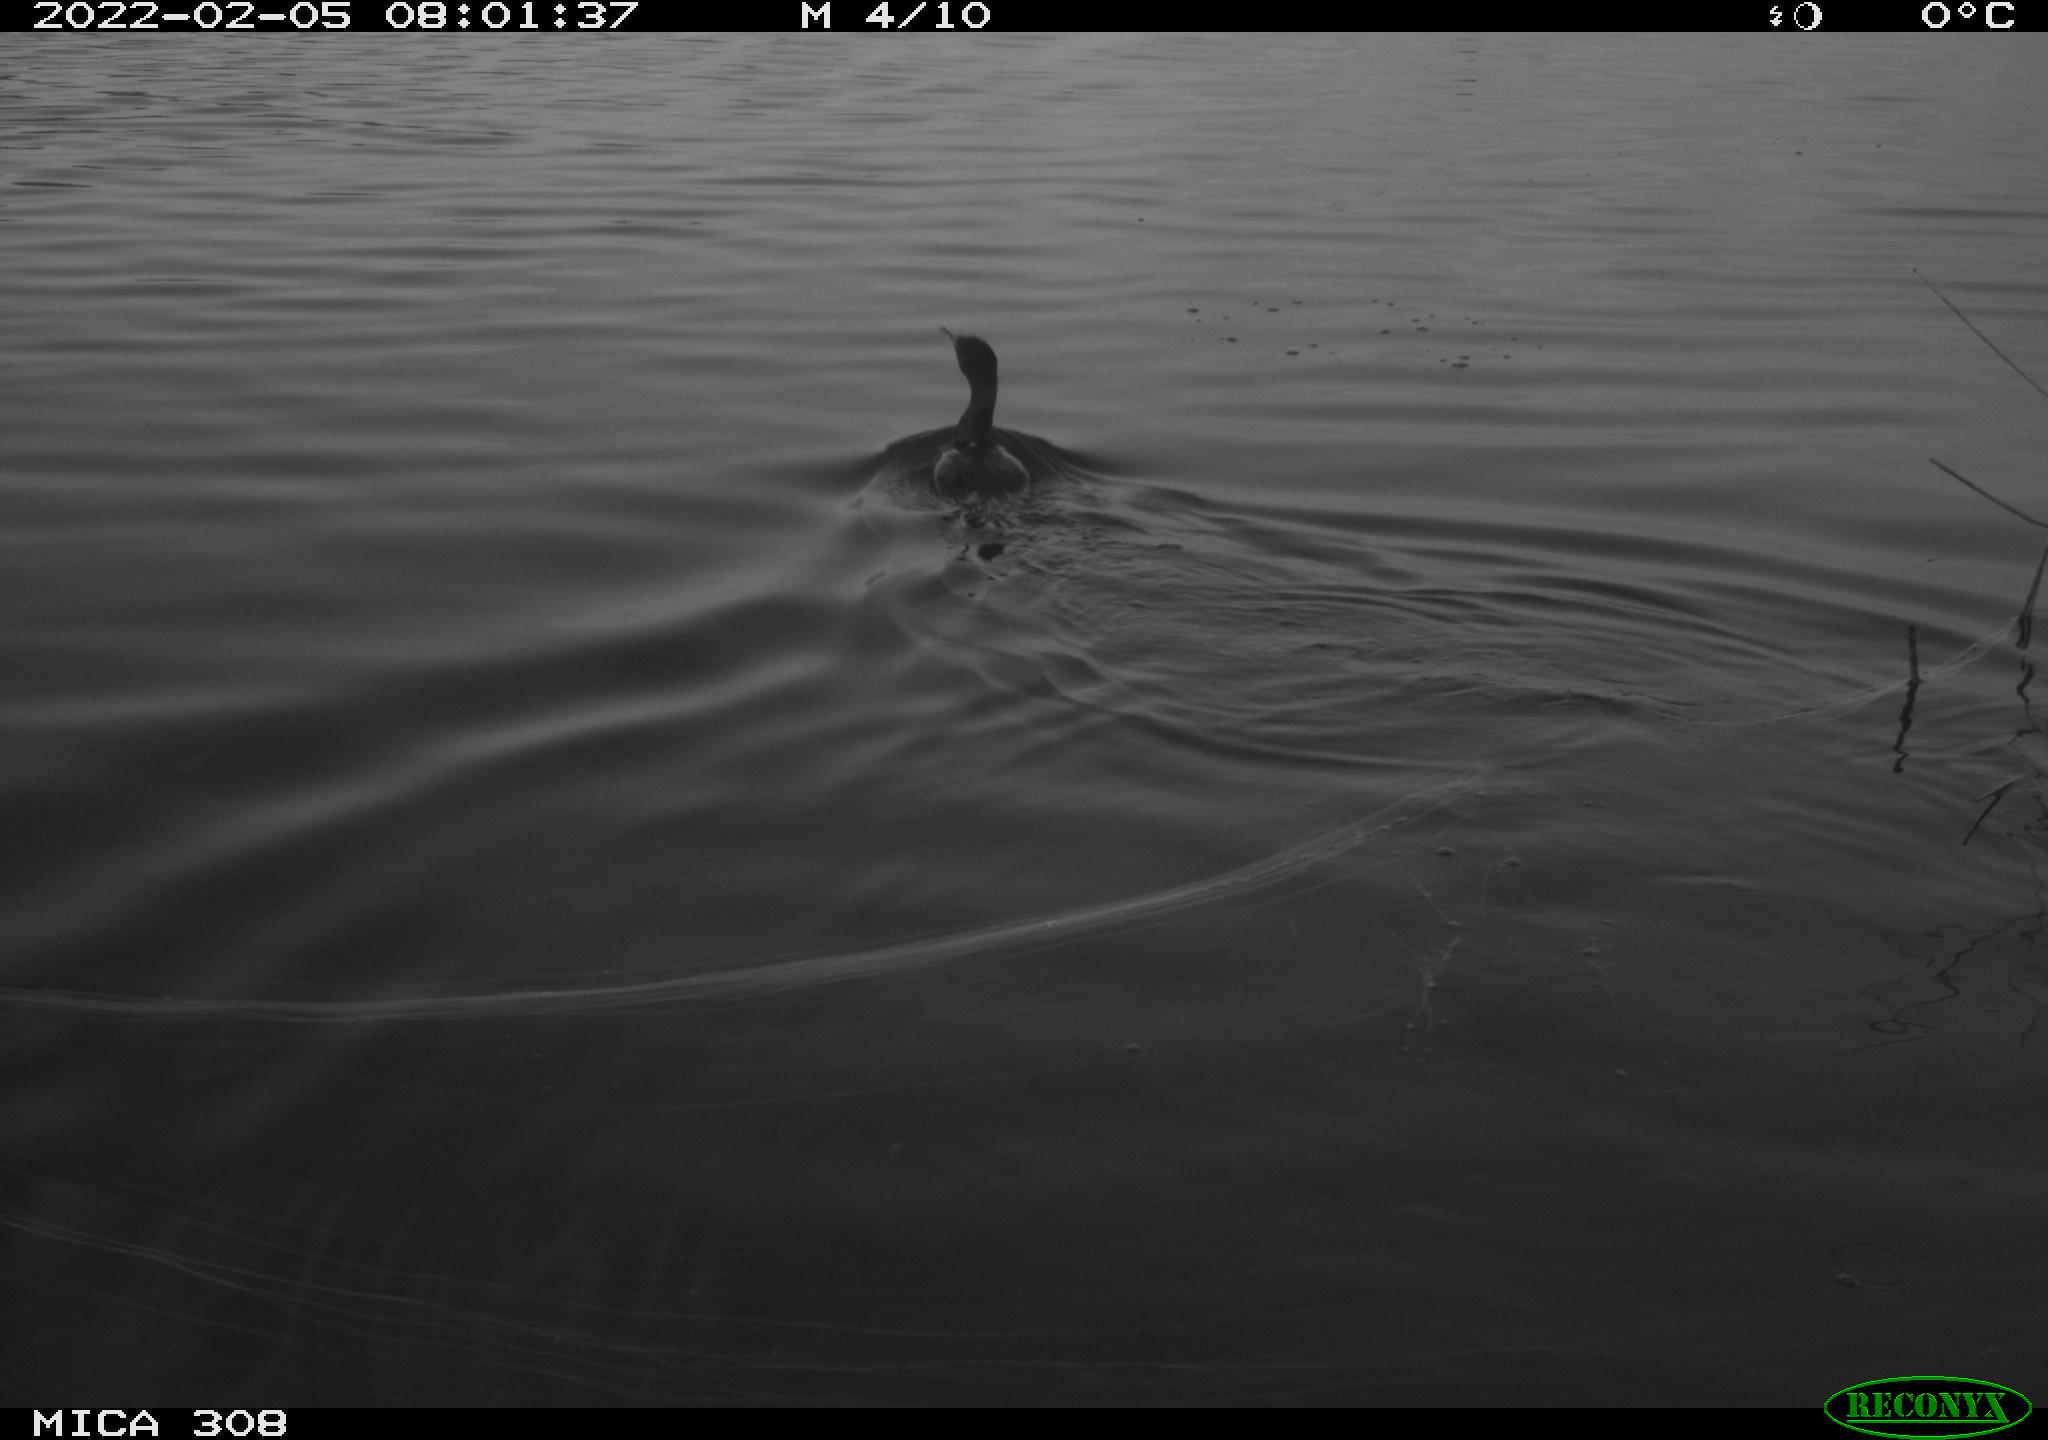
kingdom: Animalia
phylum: Chordata
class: Aves
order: Suliformes
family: Phalacrocoracidae
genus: Phalacrocorax
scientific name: Phalacrocorax carbo
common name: Great cormorant
